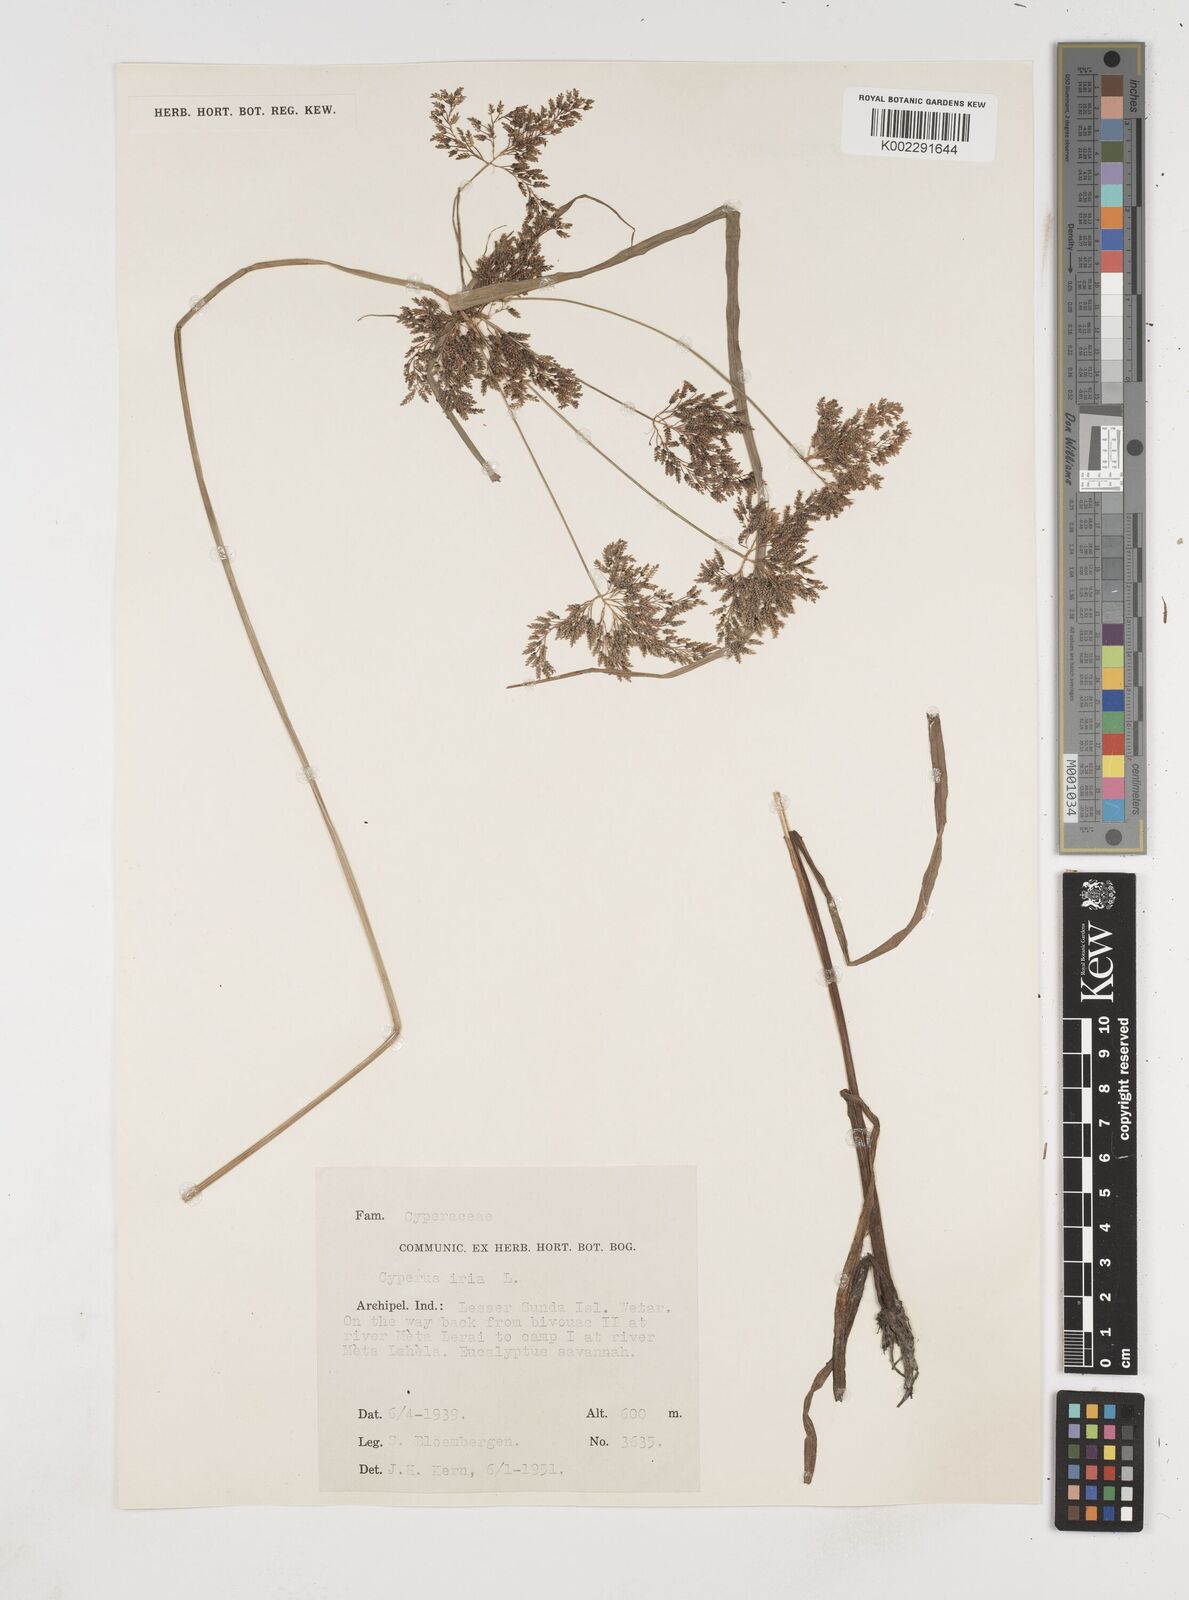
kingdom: Plantae
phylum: Tracheophyta
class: Liliopsida
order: Poales
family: Cyperaceae
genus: Cyperus
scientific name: Cyperus iria
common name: Ricefield flatsedge
